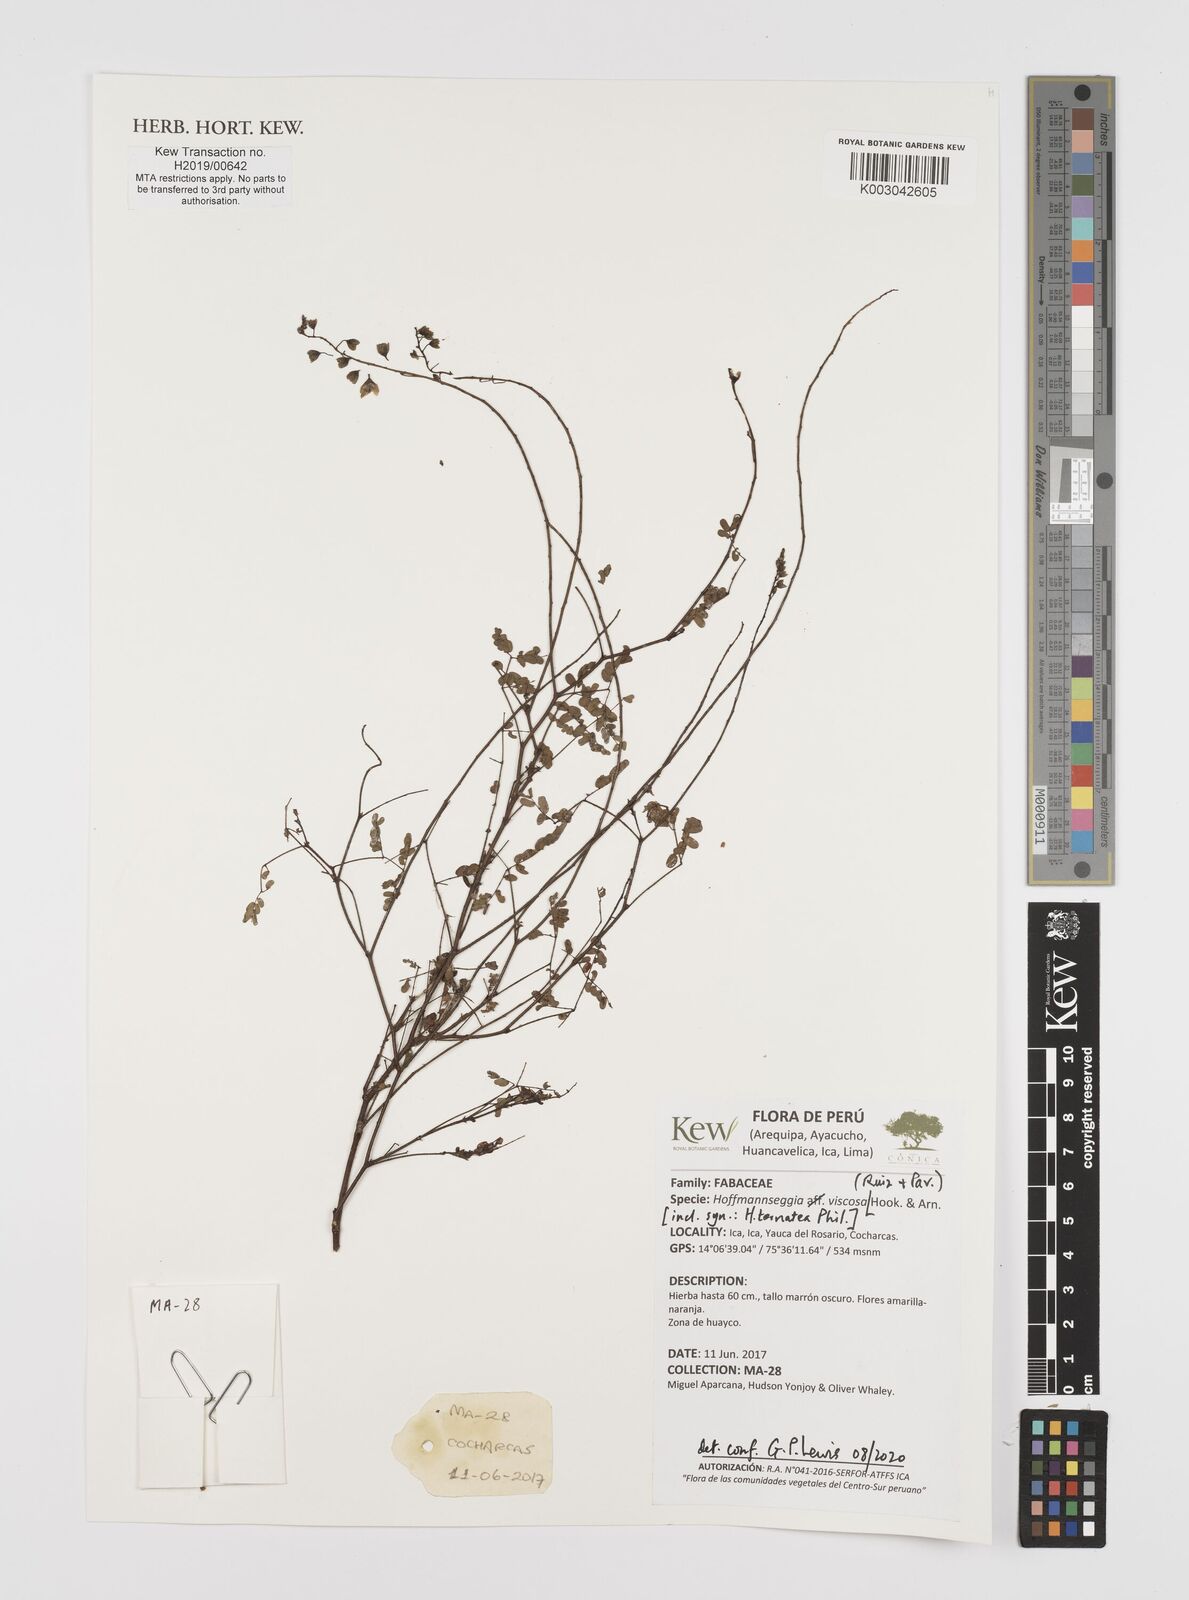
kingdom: Plantae
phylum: Tracheophyta
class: Magnoliopsida
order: Fabales
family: Fabaceae
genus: Hoffmannseggia
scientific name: Hoffmannseggia viscosa
